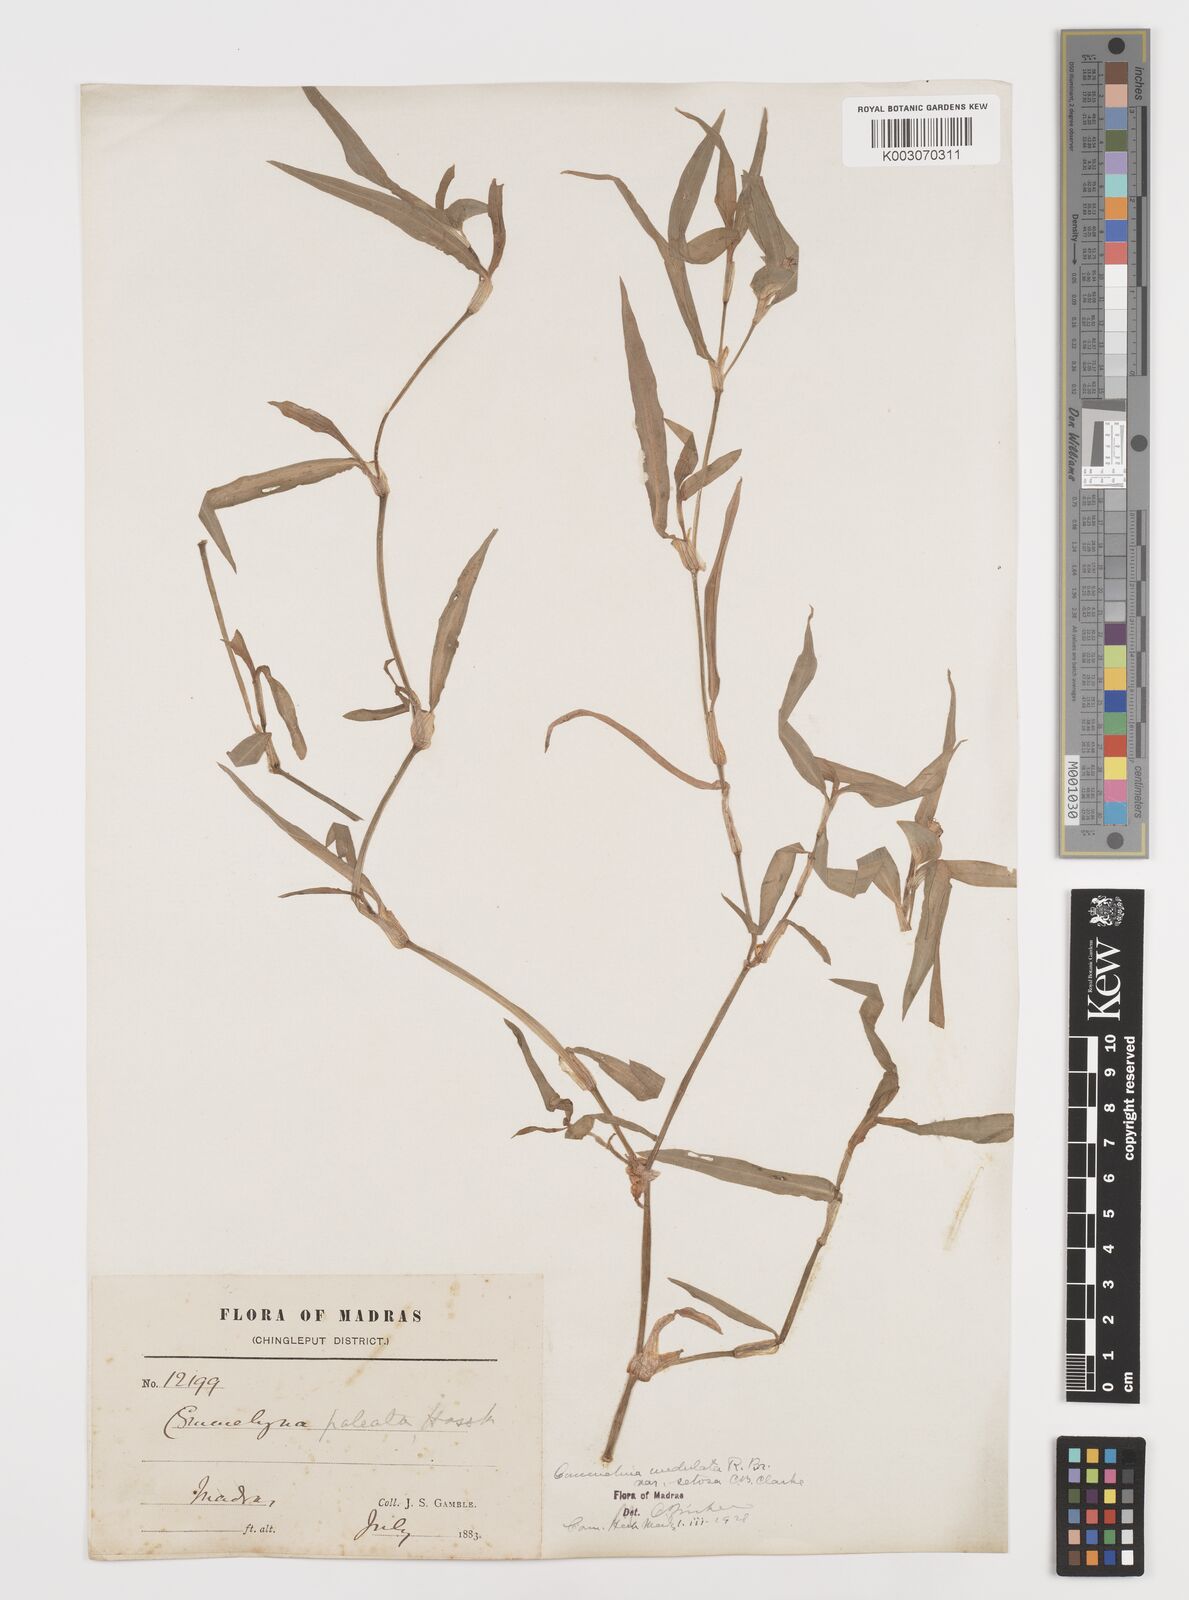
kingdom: Plantae
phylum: Tracheophyta
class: Liliopsida
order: Commelinales
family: Commelinaceae
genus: Commelina
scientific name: Commelina chamissonis
